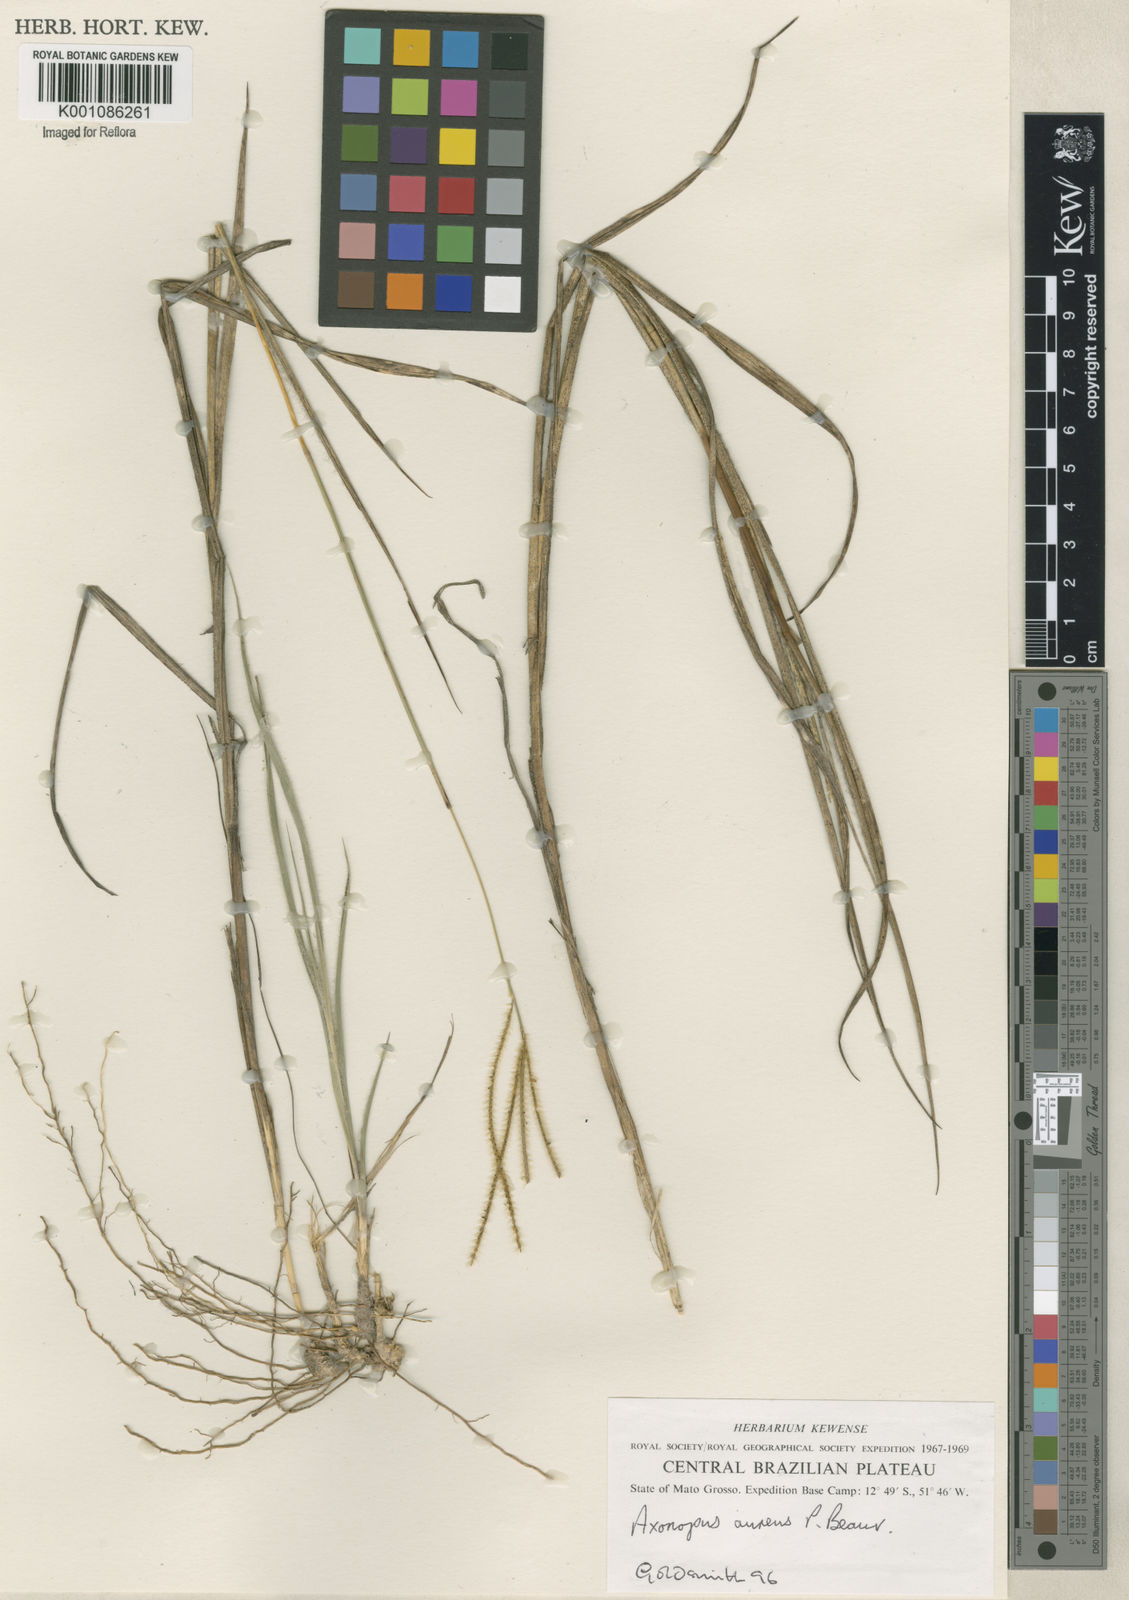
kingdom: Plantae
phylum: Tracheophyta
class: Liliopsida
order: Poales
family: Poaceae
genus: Axonopus
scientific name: Axonopus aureus
